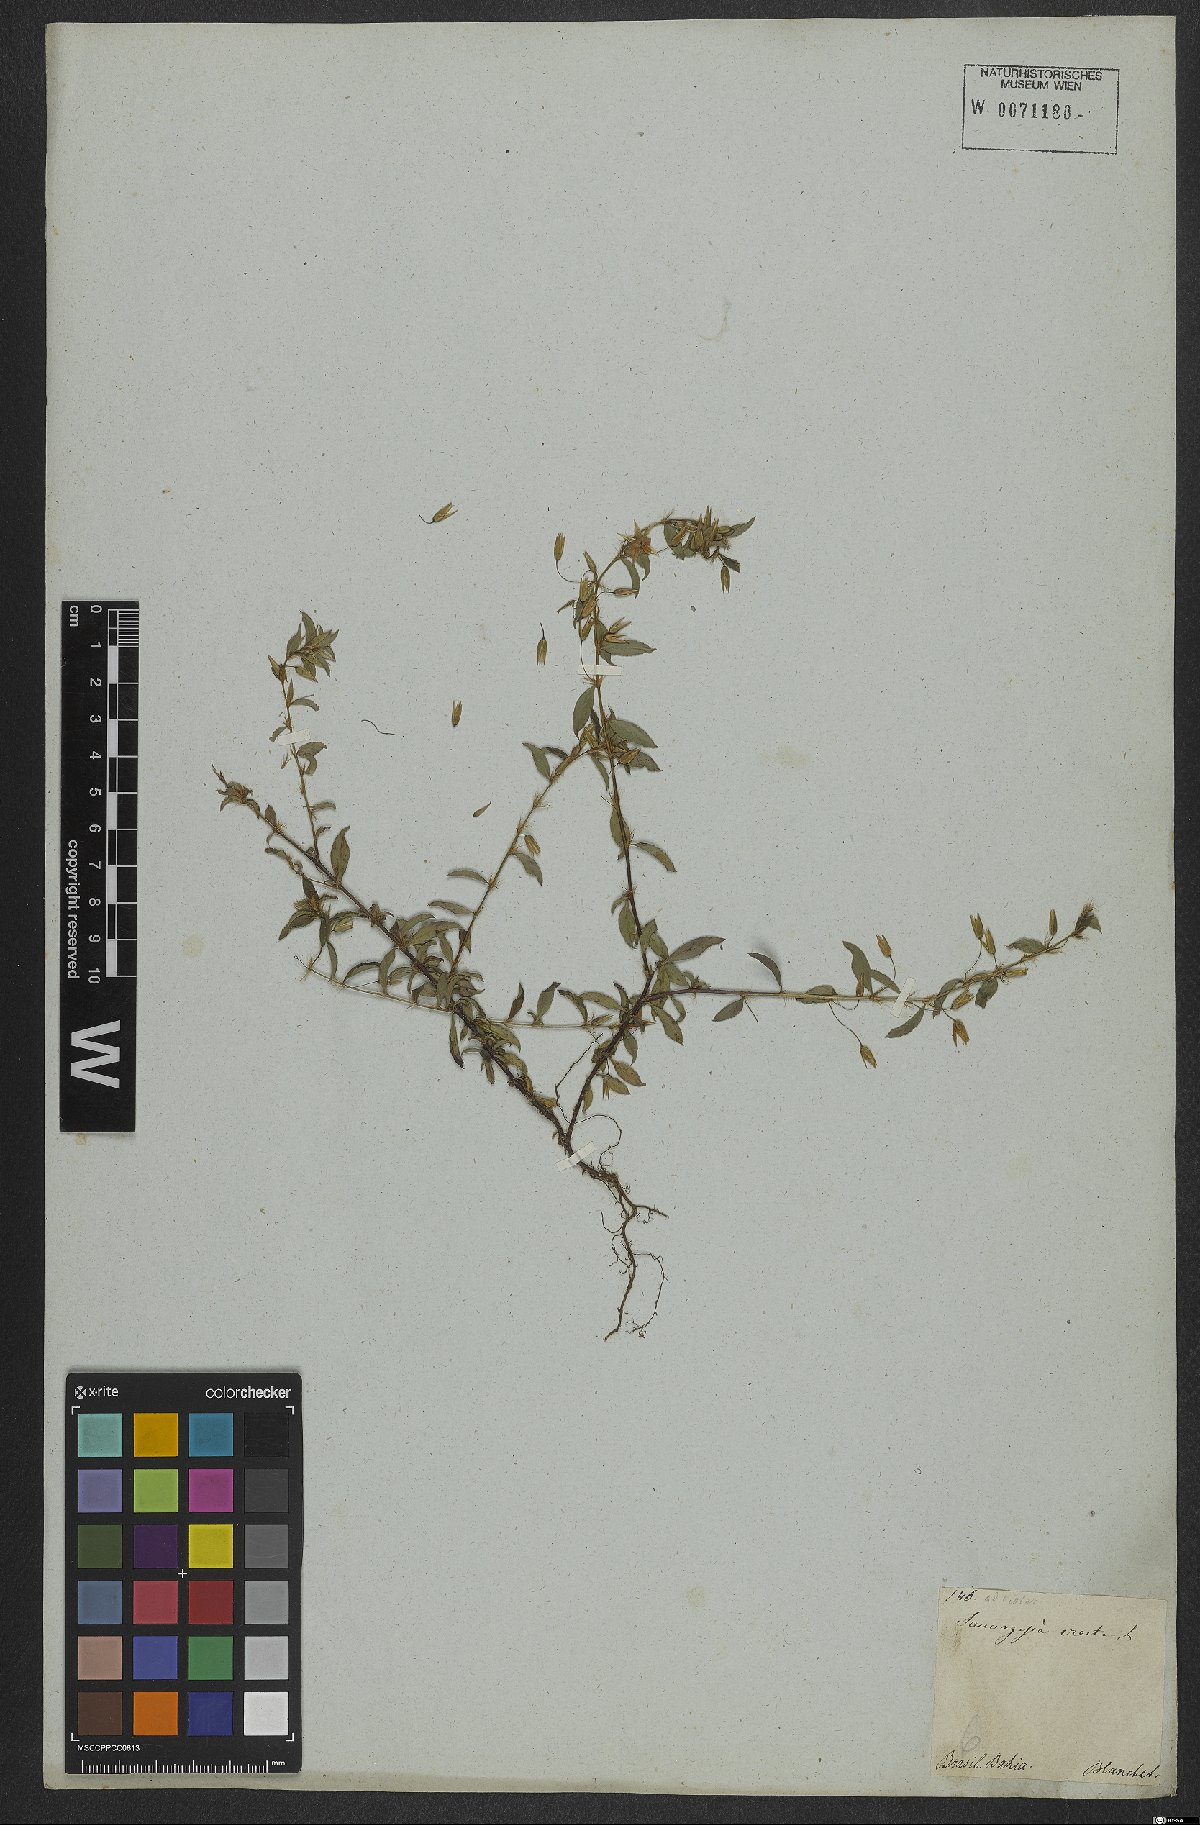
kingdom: Plantae
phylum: Tracheophyta
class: Magnoliopsida
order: Malpighiales
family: Ochnaceae
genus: Sauvagesia
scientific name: Sauvagesia erecta
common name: Creole tea
